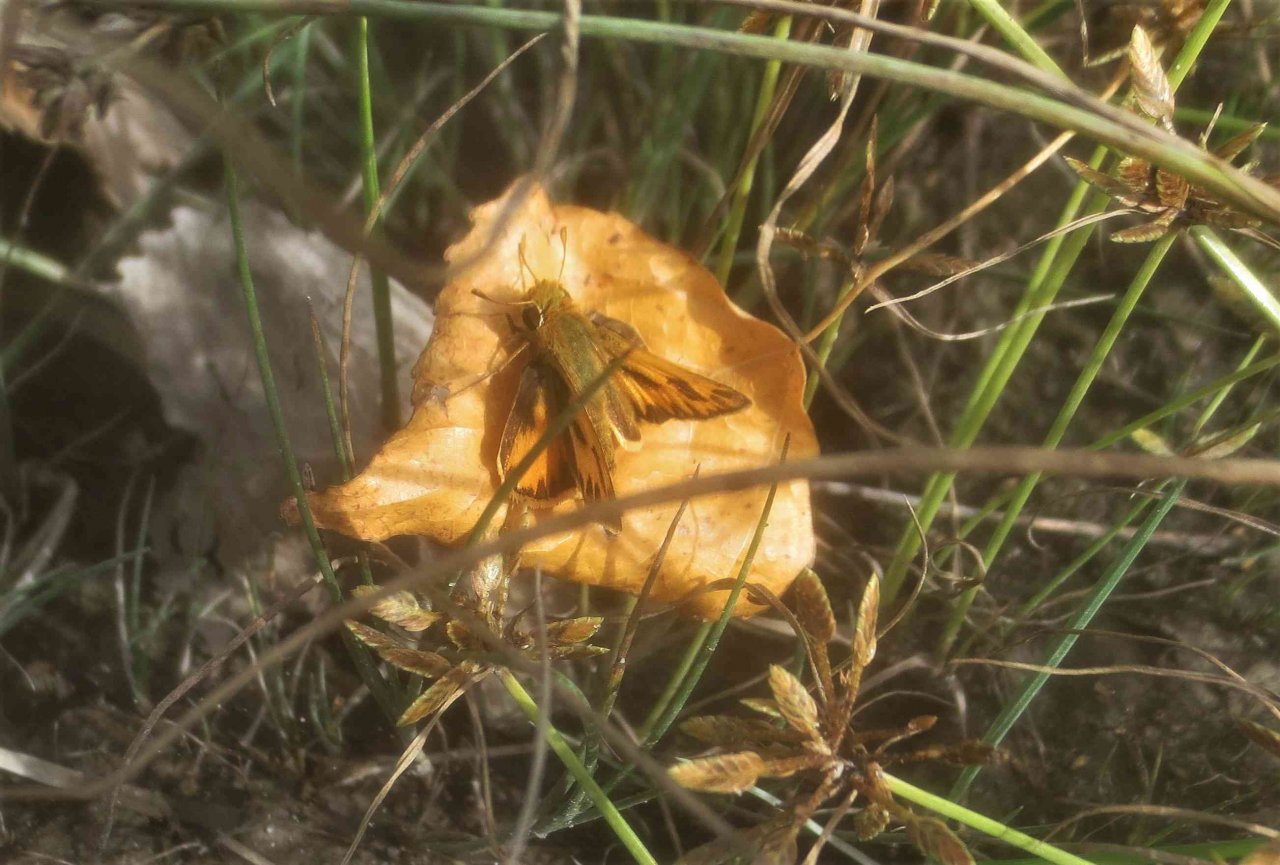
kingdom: Animalia
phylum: Arthropoda
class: Insecta
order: Lepidoptera
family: Hesperiidae
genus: Hylephila
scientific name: Hylephila phyleus
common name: Fiery Skipper
